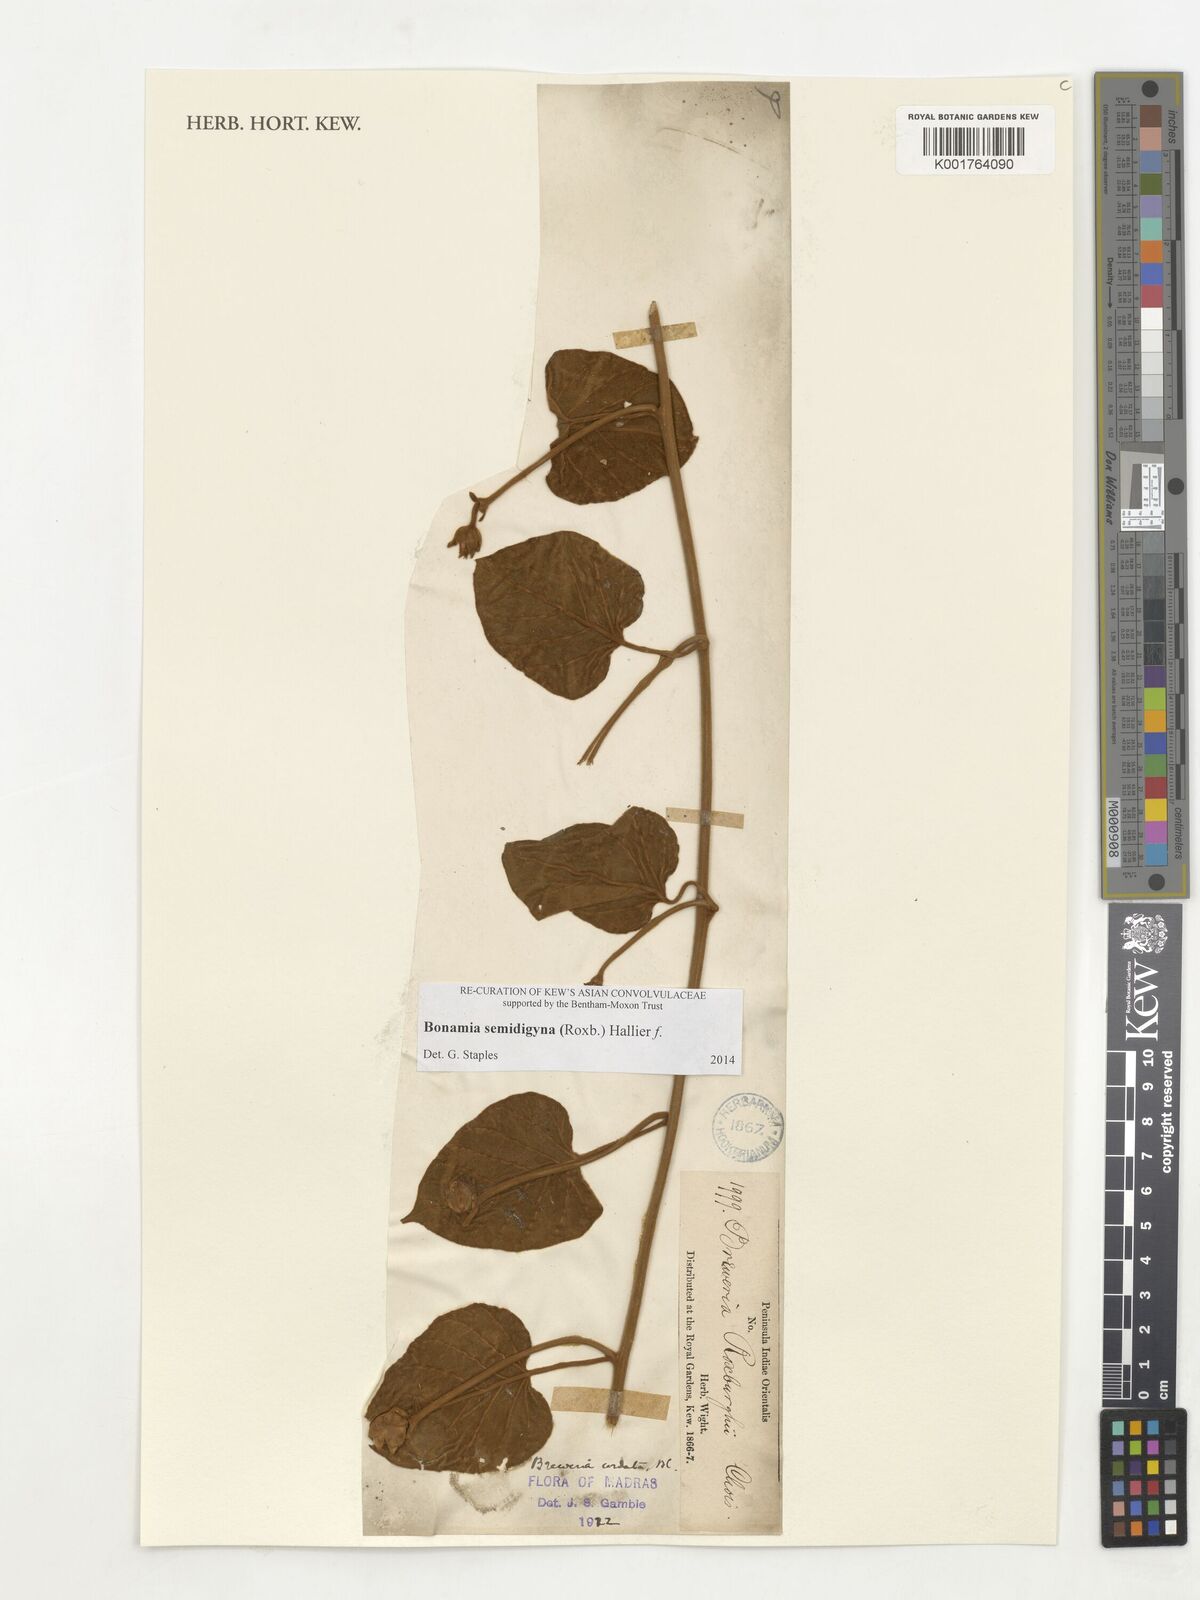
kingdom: Plantae
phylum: Tracheophyta
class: Magnoliopsida
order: Solanales
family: Convolvulaceae
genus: Bonamia
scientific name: Bonamia semidigyna
